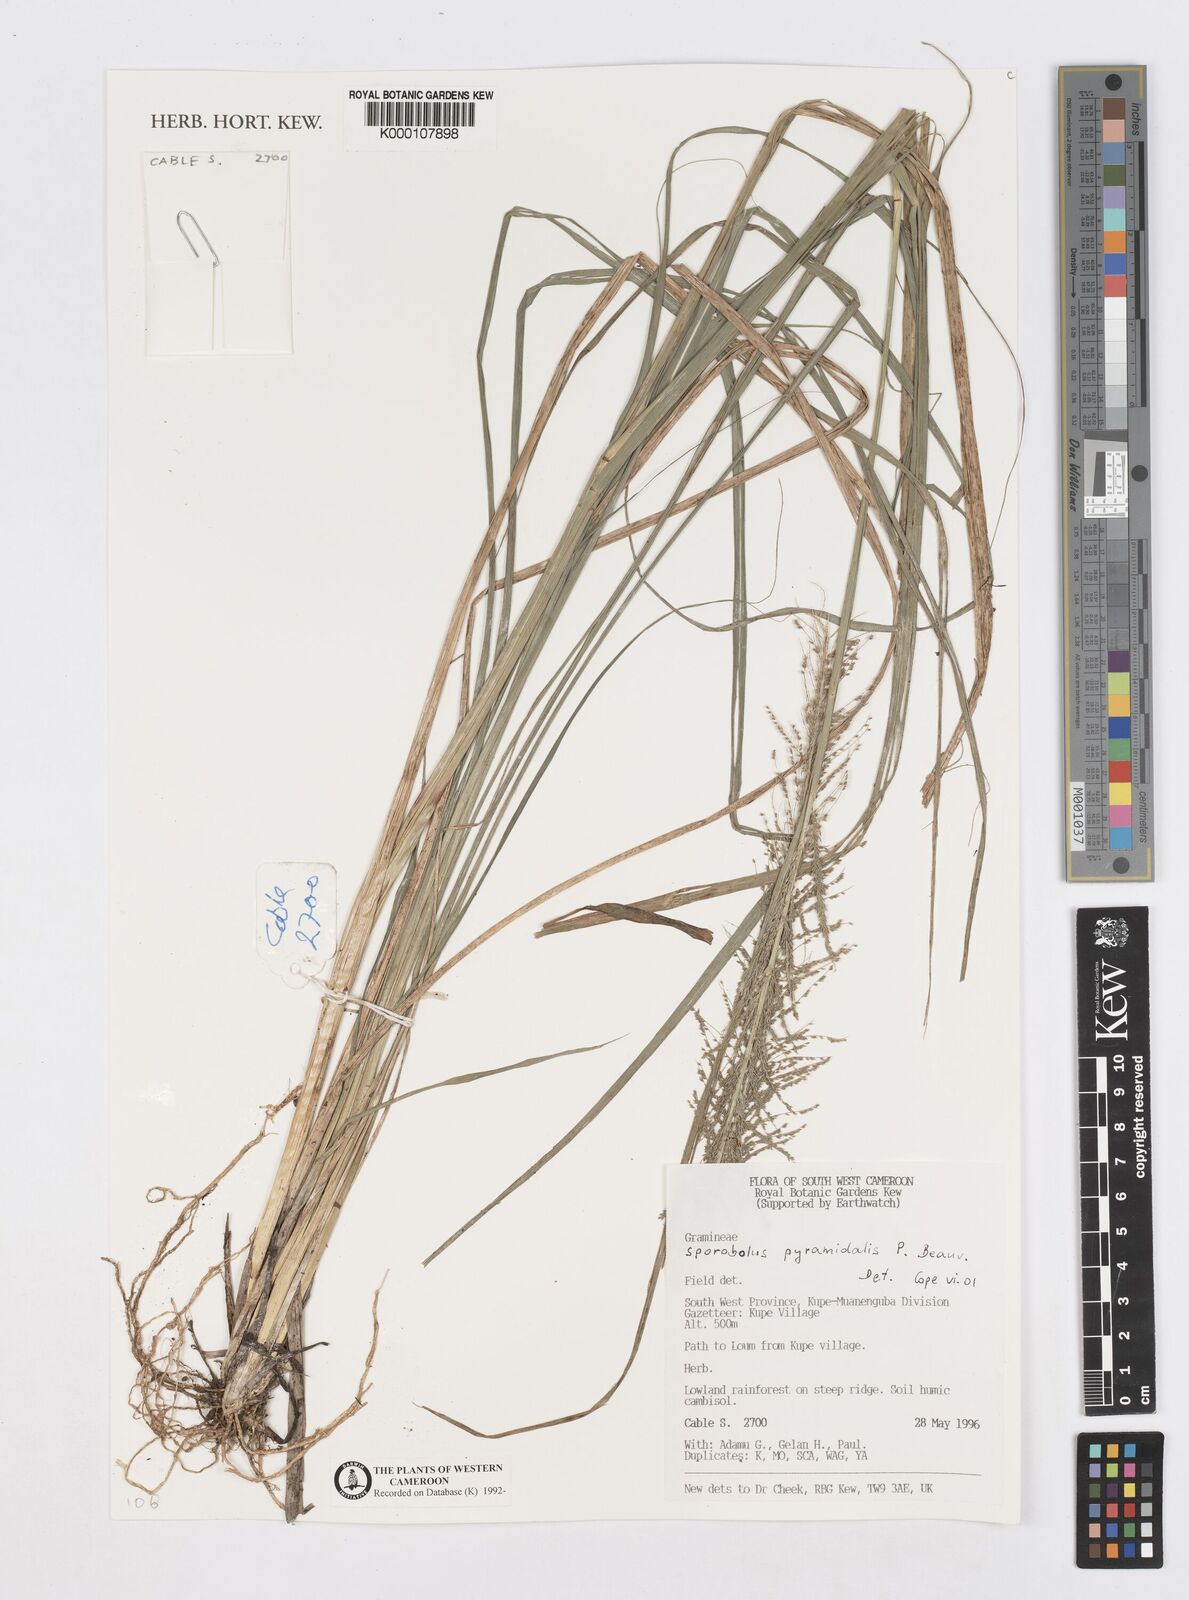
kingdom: Plantae
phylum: Tracheophyta
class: Liliopsida
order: Poales
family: Poaceae
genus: Sporobolus
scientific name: Sporobolus pyramidalis
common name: West indian dropseed
